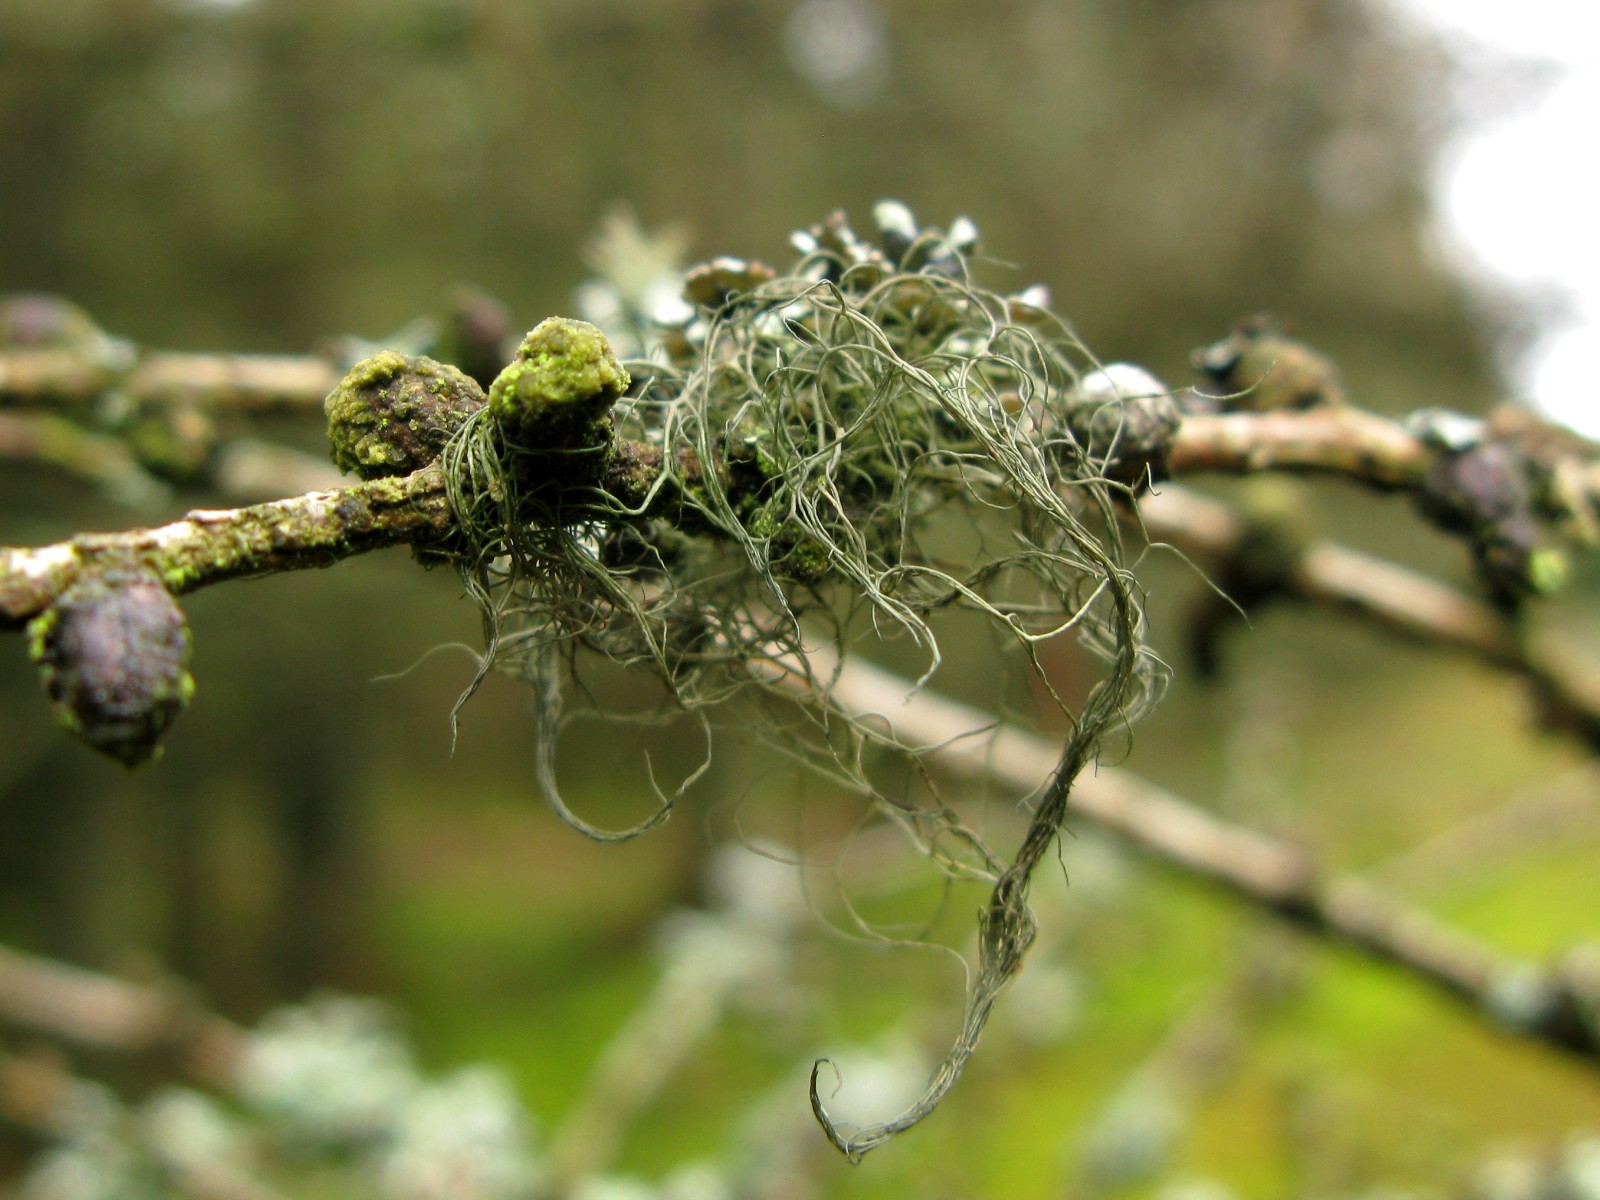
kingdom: Fungi
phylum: Ascomycota
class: Lecanoromycetes
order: Lecanorales
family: Parmeliaceae
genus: Bryoria
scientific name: Bryoria
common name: almindelig mankelav
